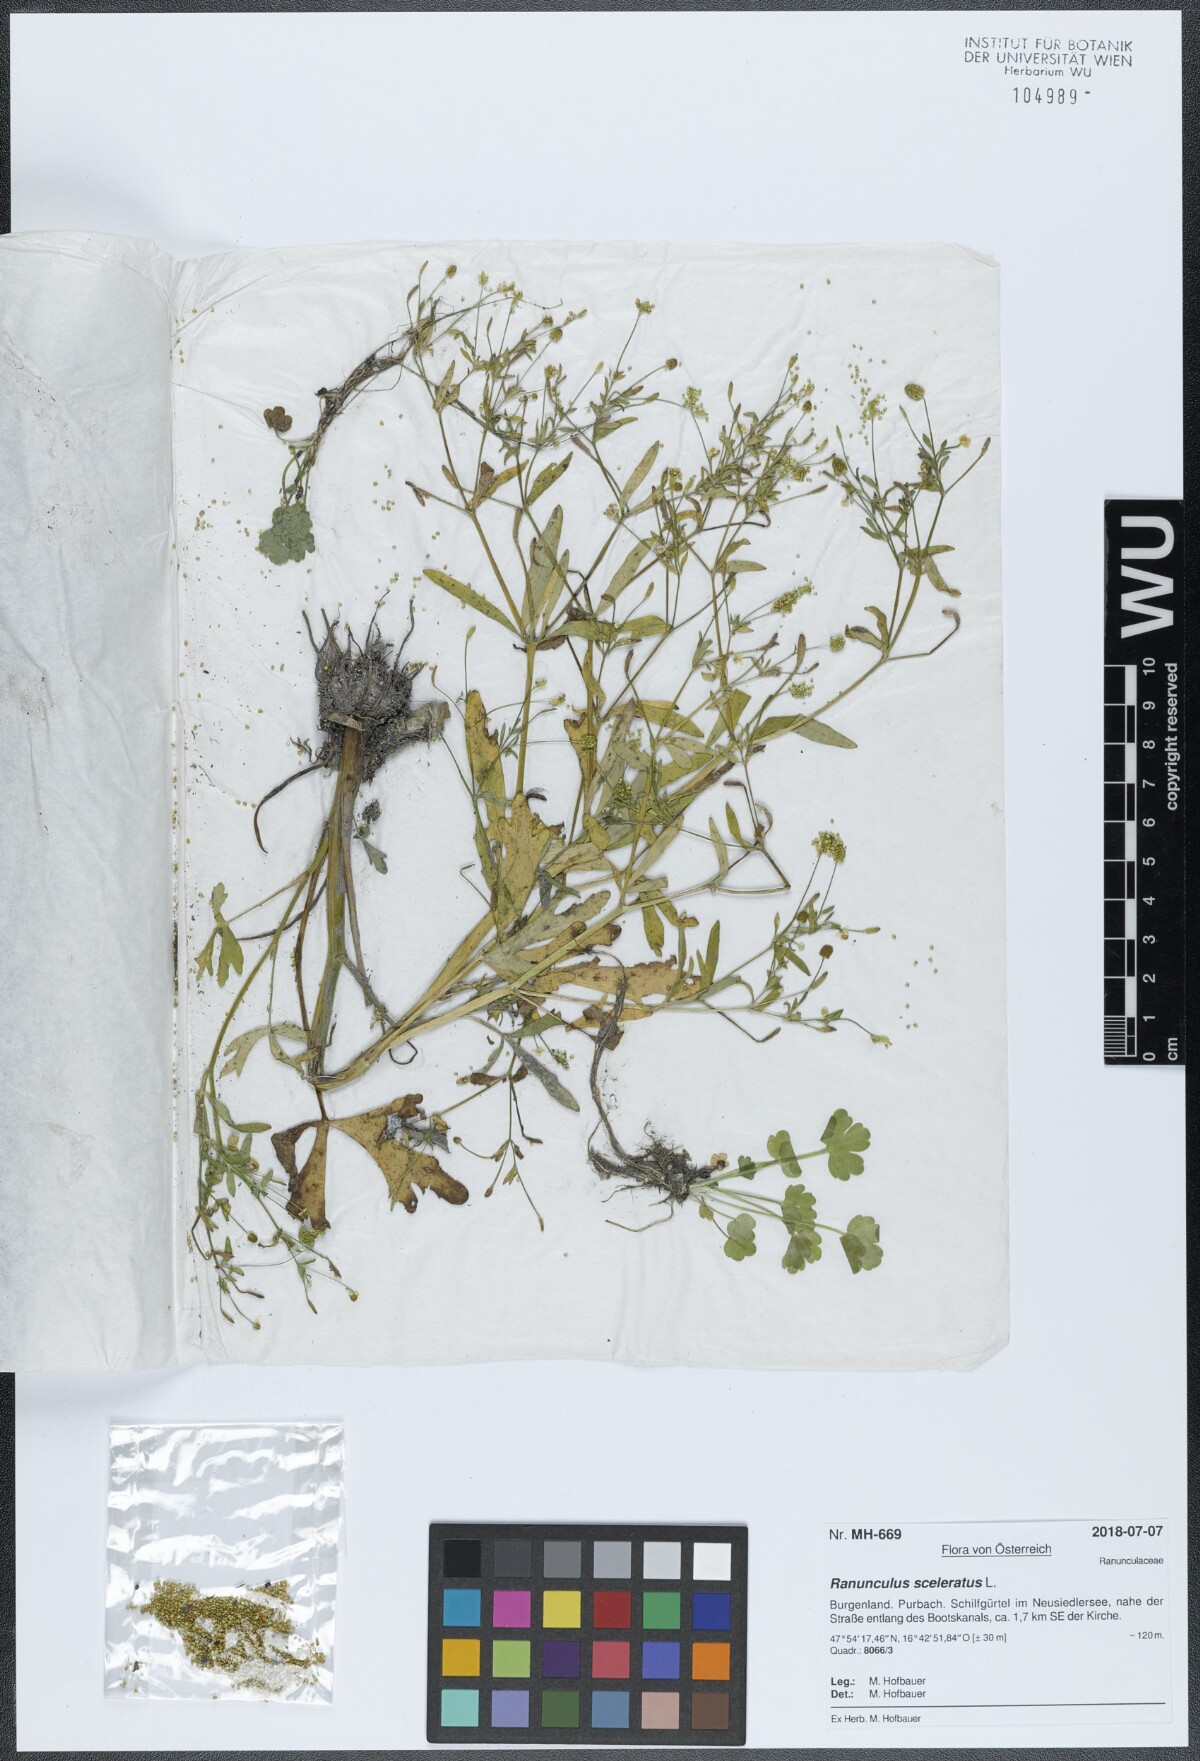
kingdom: Plantae
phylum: Tracheophyta
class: Magnoliopsida
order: Ranunculales
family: Ranunculaceae
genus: Ranunculus
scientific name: Ranunculus sceleratus
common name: Celery-leaved buttercup
